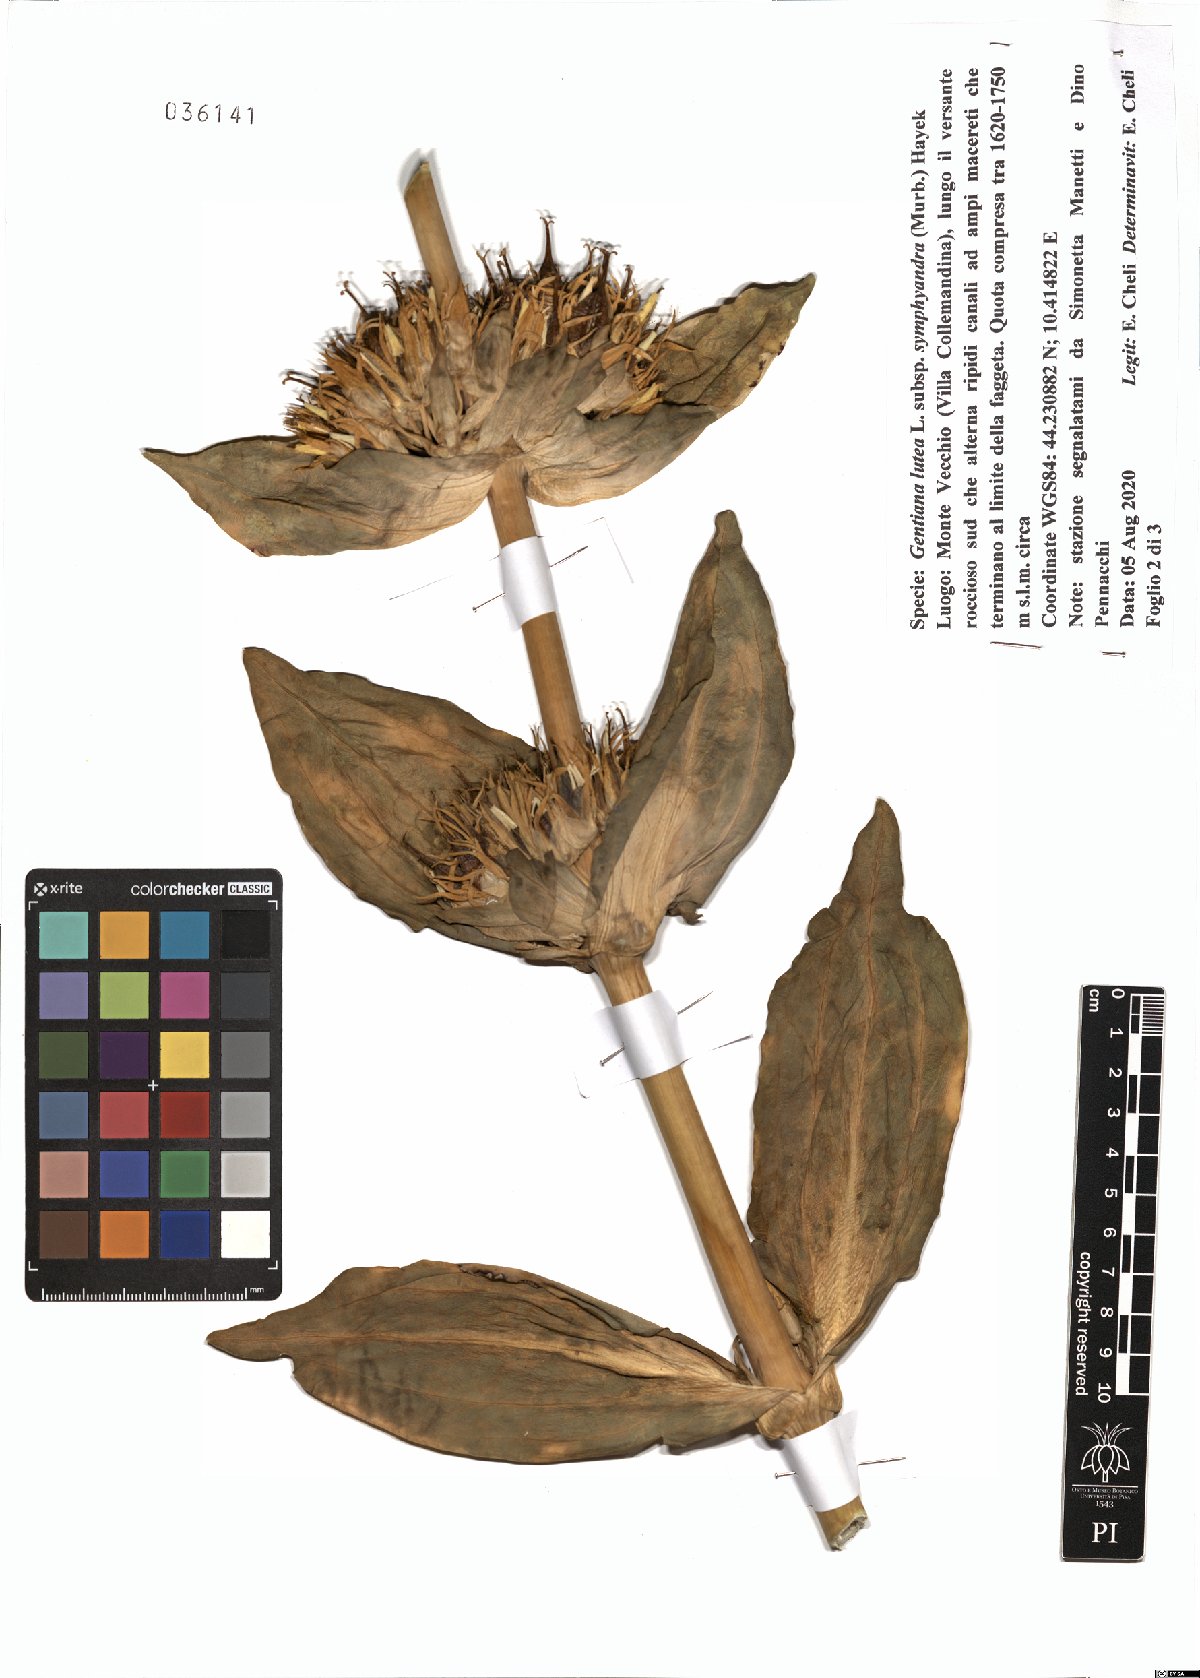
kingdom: Plantae
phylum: Tracheophyta
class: Magnoliopsida
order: Gentianales
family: Gentianaceae
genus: Gentiana
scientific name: Gentiana lutea
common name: Great yellow gentian
